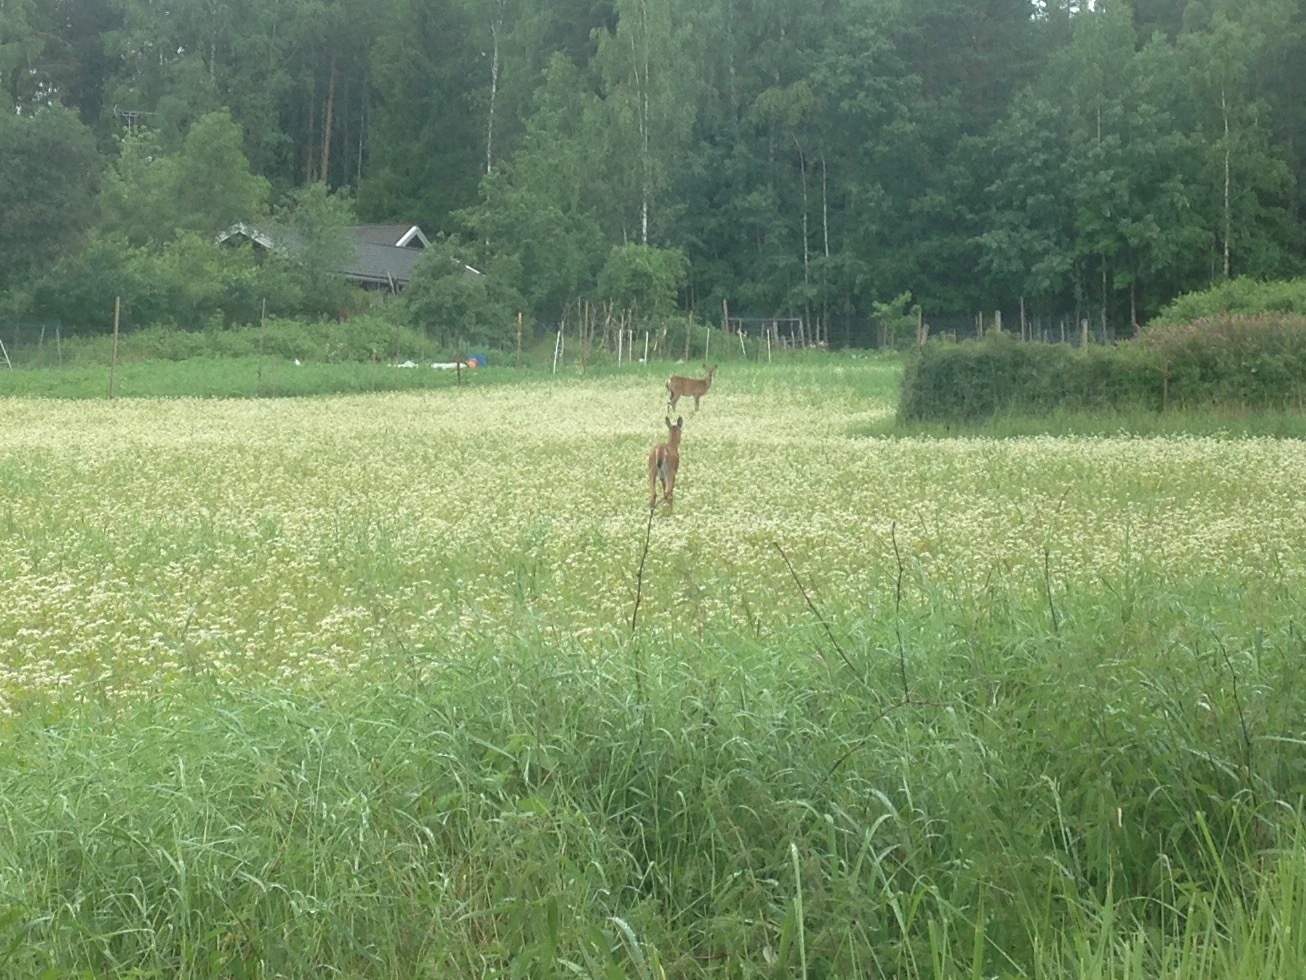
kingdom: Animalia
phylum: Chordata
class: Mammalia
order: Artiodactyla
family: Cervidae
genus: Odocoileus
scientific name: Odocoileus virginianus
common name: White-tailed deer
